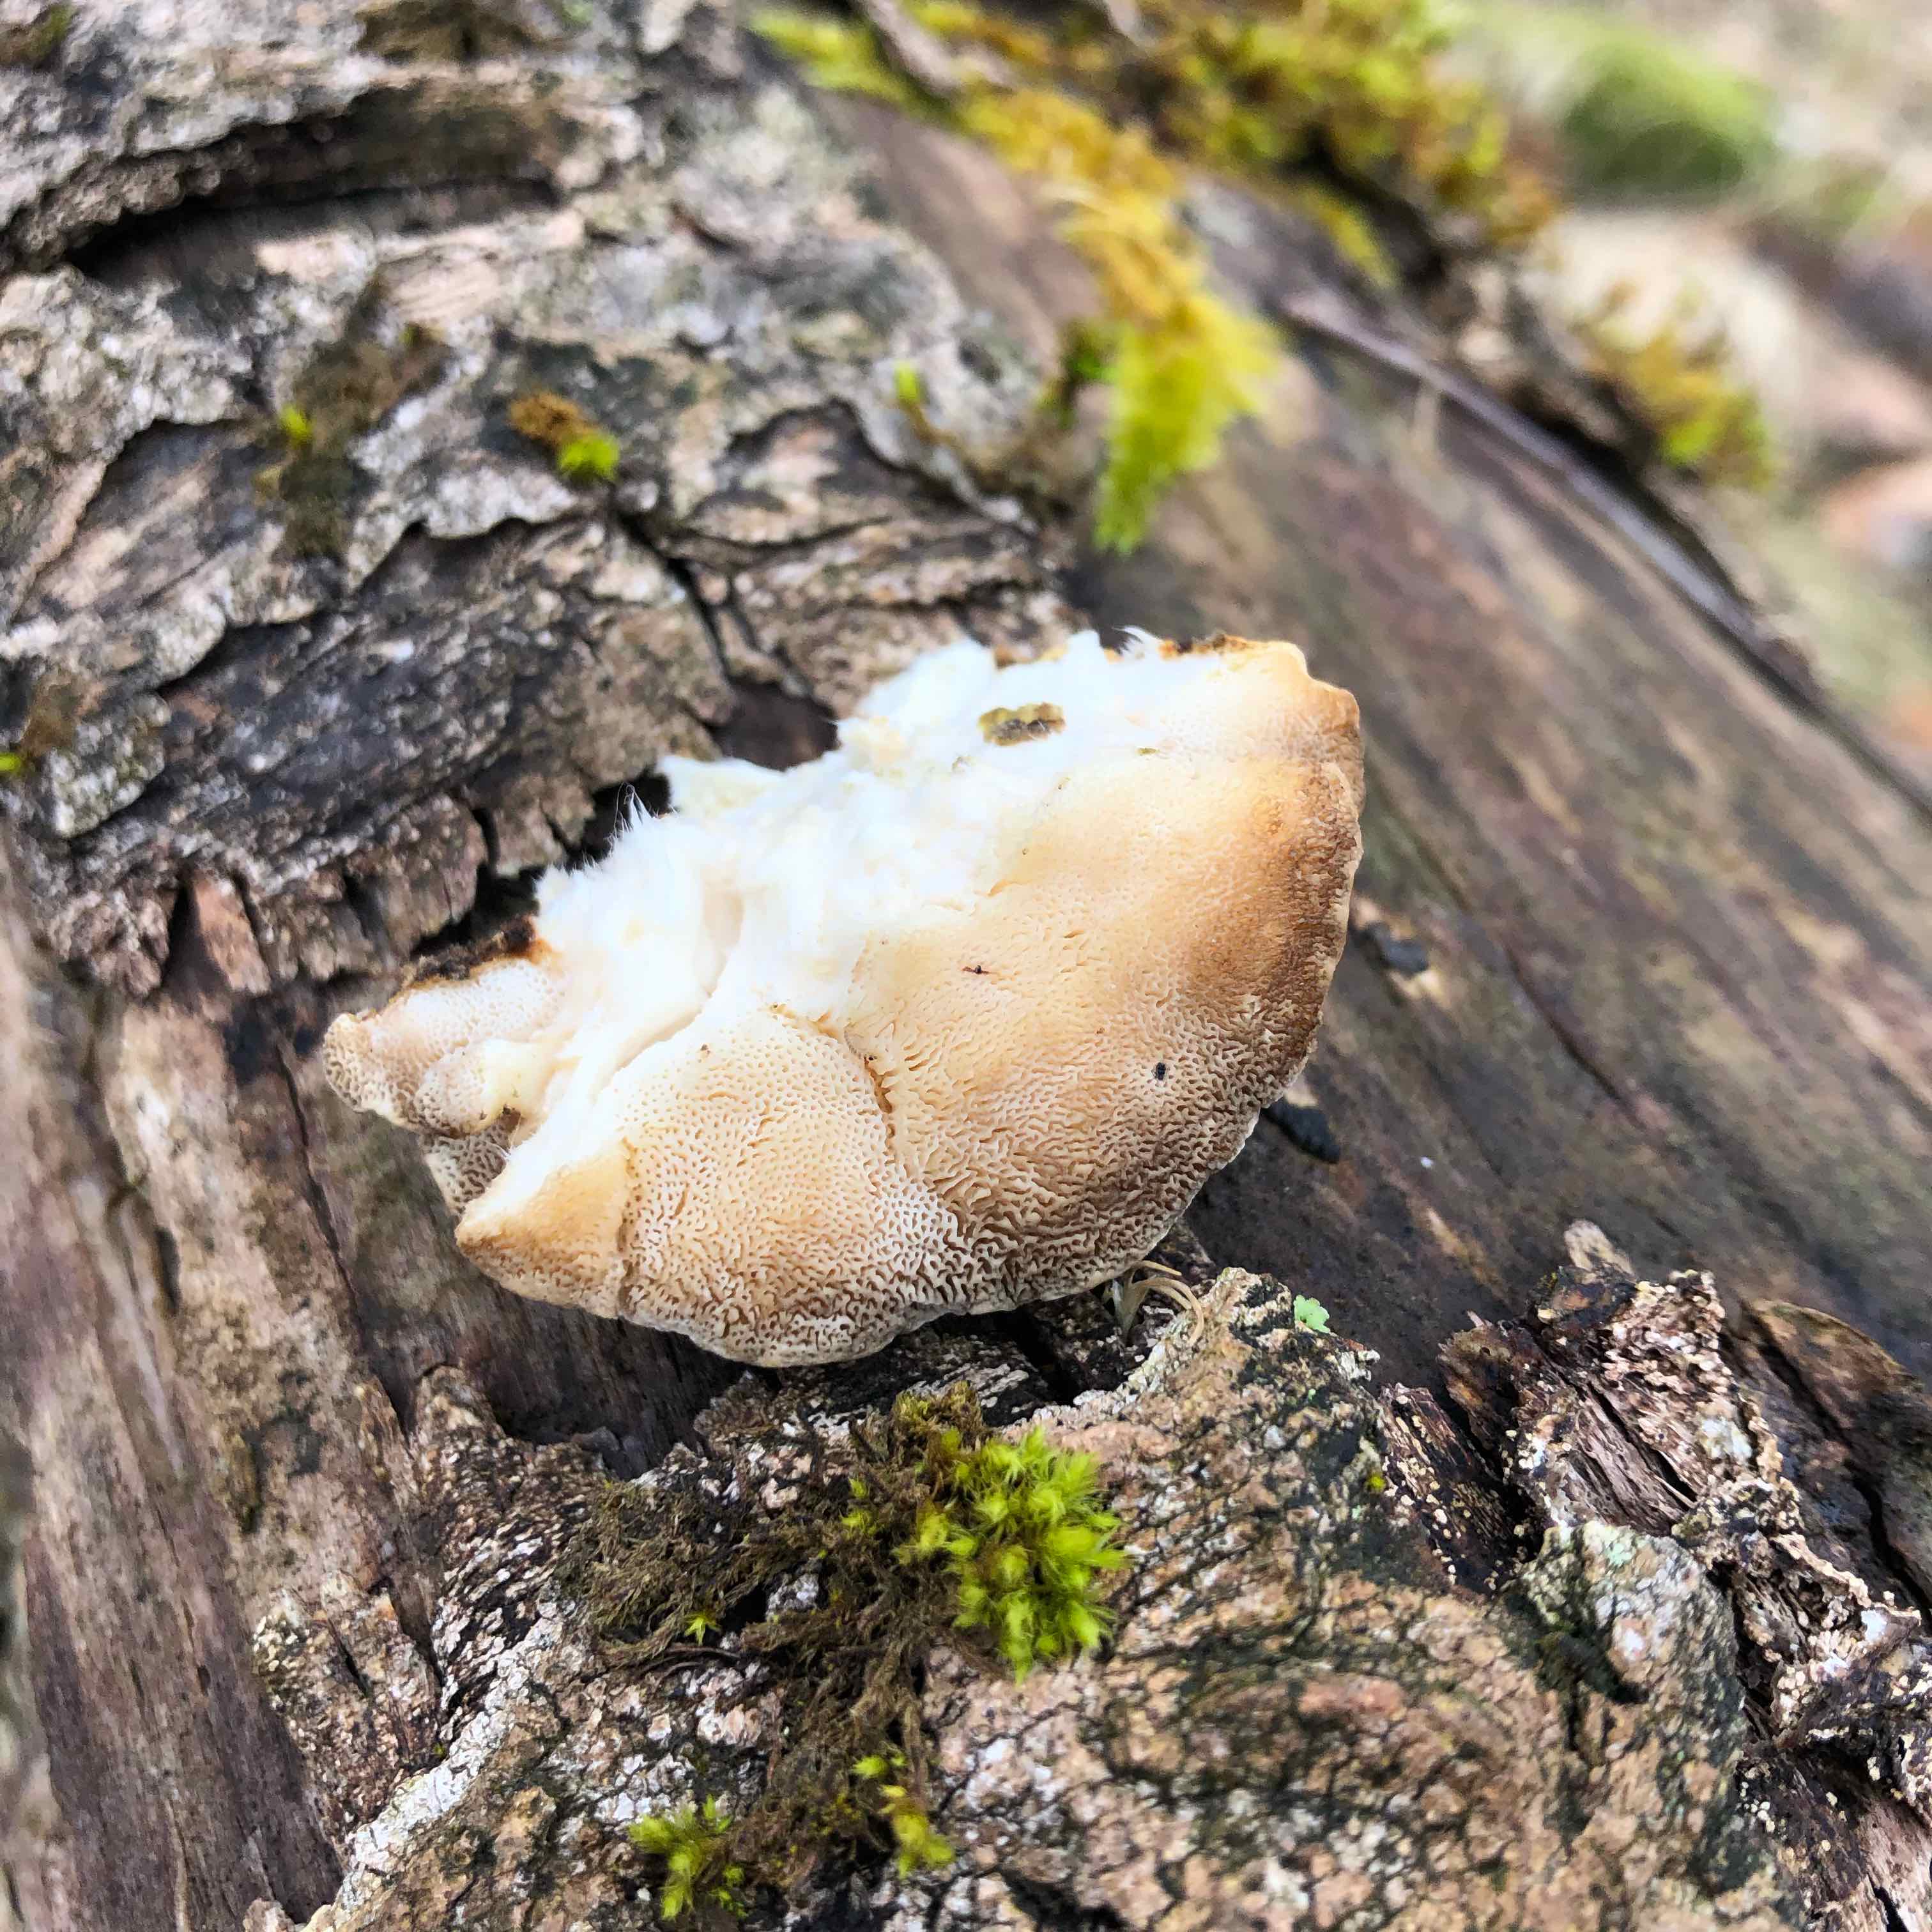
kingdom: Fungi
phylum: Basidiomycota
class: Agaricomycetes
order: Polyporales
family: Polyporaceae
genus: Trametes
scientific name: Trametes ochracea
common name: bæltet læderporesvamp
